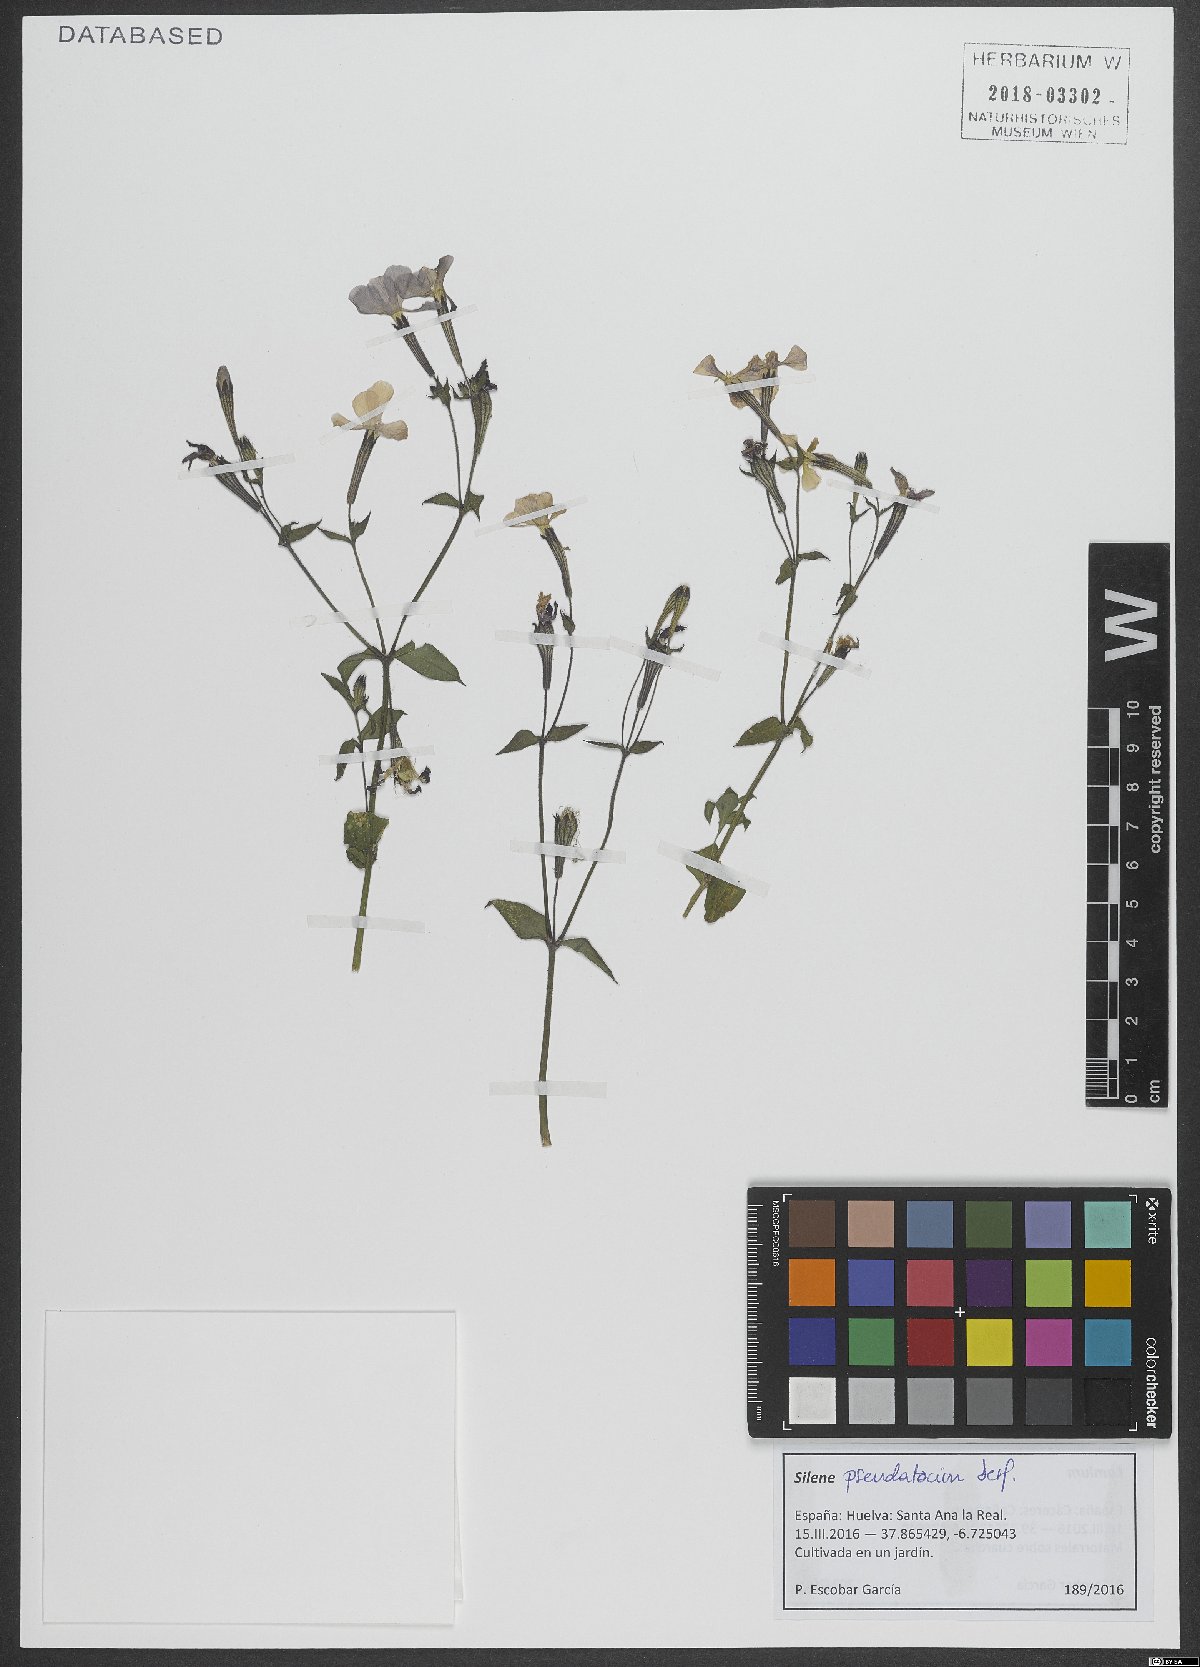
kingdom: Plantae
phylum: Tracheophyta
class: Magnoliopsida
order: Caryophyllales
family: Caryophyllaceae
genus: Silene
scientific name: Silene pseudoatocion
